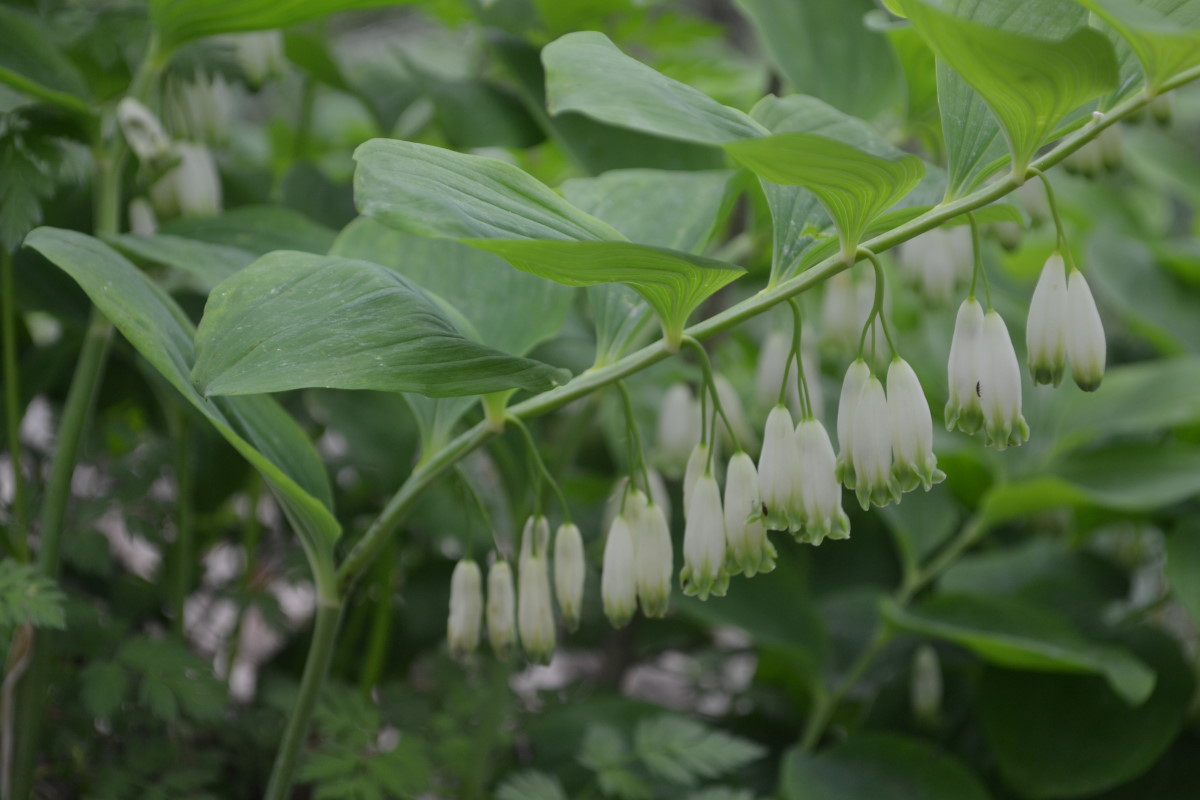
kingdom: Plantae
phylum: Tracheophyta
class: Liliopsida
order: Asparagales
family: Asparagaceae
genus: Polygonatum
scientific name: Polygonatum odoratum
